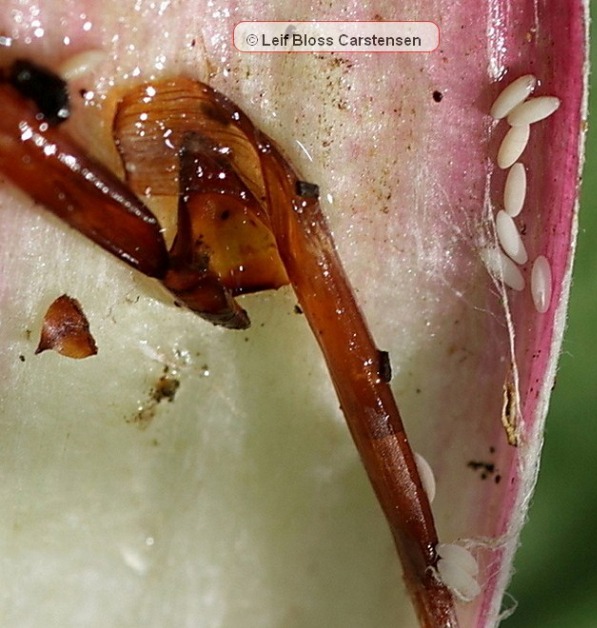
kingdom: Animalia
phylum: Arthropoda
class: Insecta
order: Diptera
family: Syrphidae
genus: Cheilosia
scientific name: Cheilosia vulpina
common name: Artiskok-urtesvirreflue
